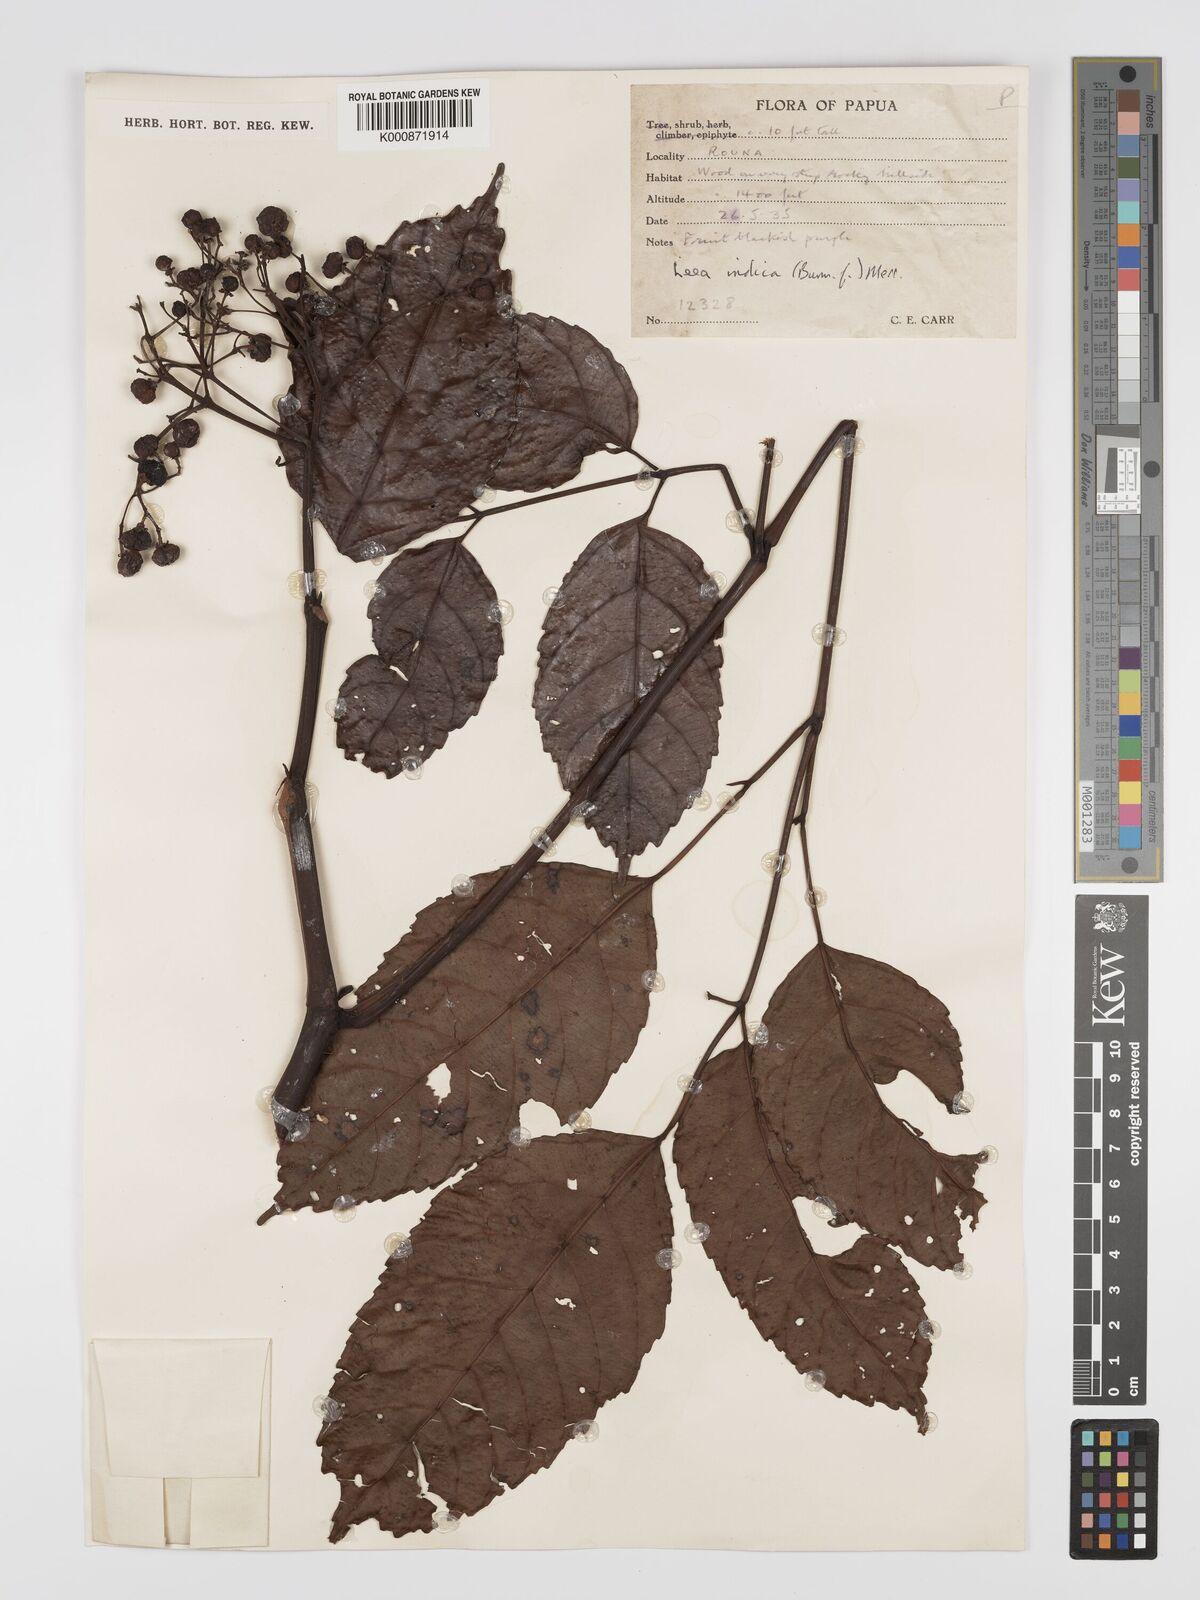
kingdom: Plantae
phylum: Tracheophyta
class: Magnoliopsida
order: Vitales
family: Vitaceae
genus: Leea
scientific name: Leea indica
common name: Bandicoot-berry
